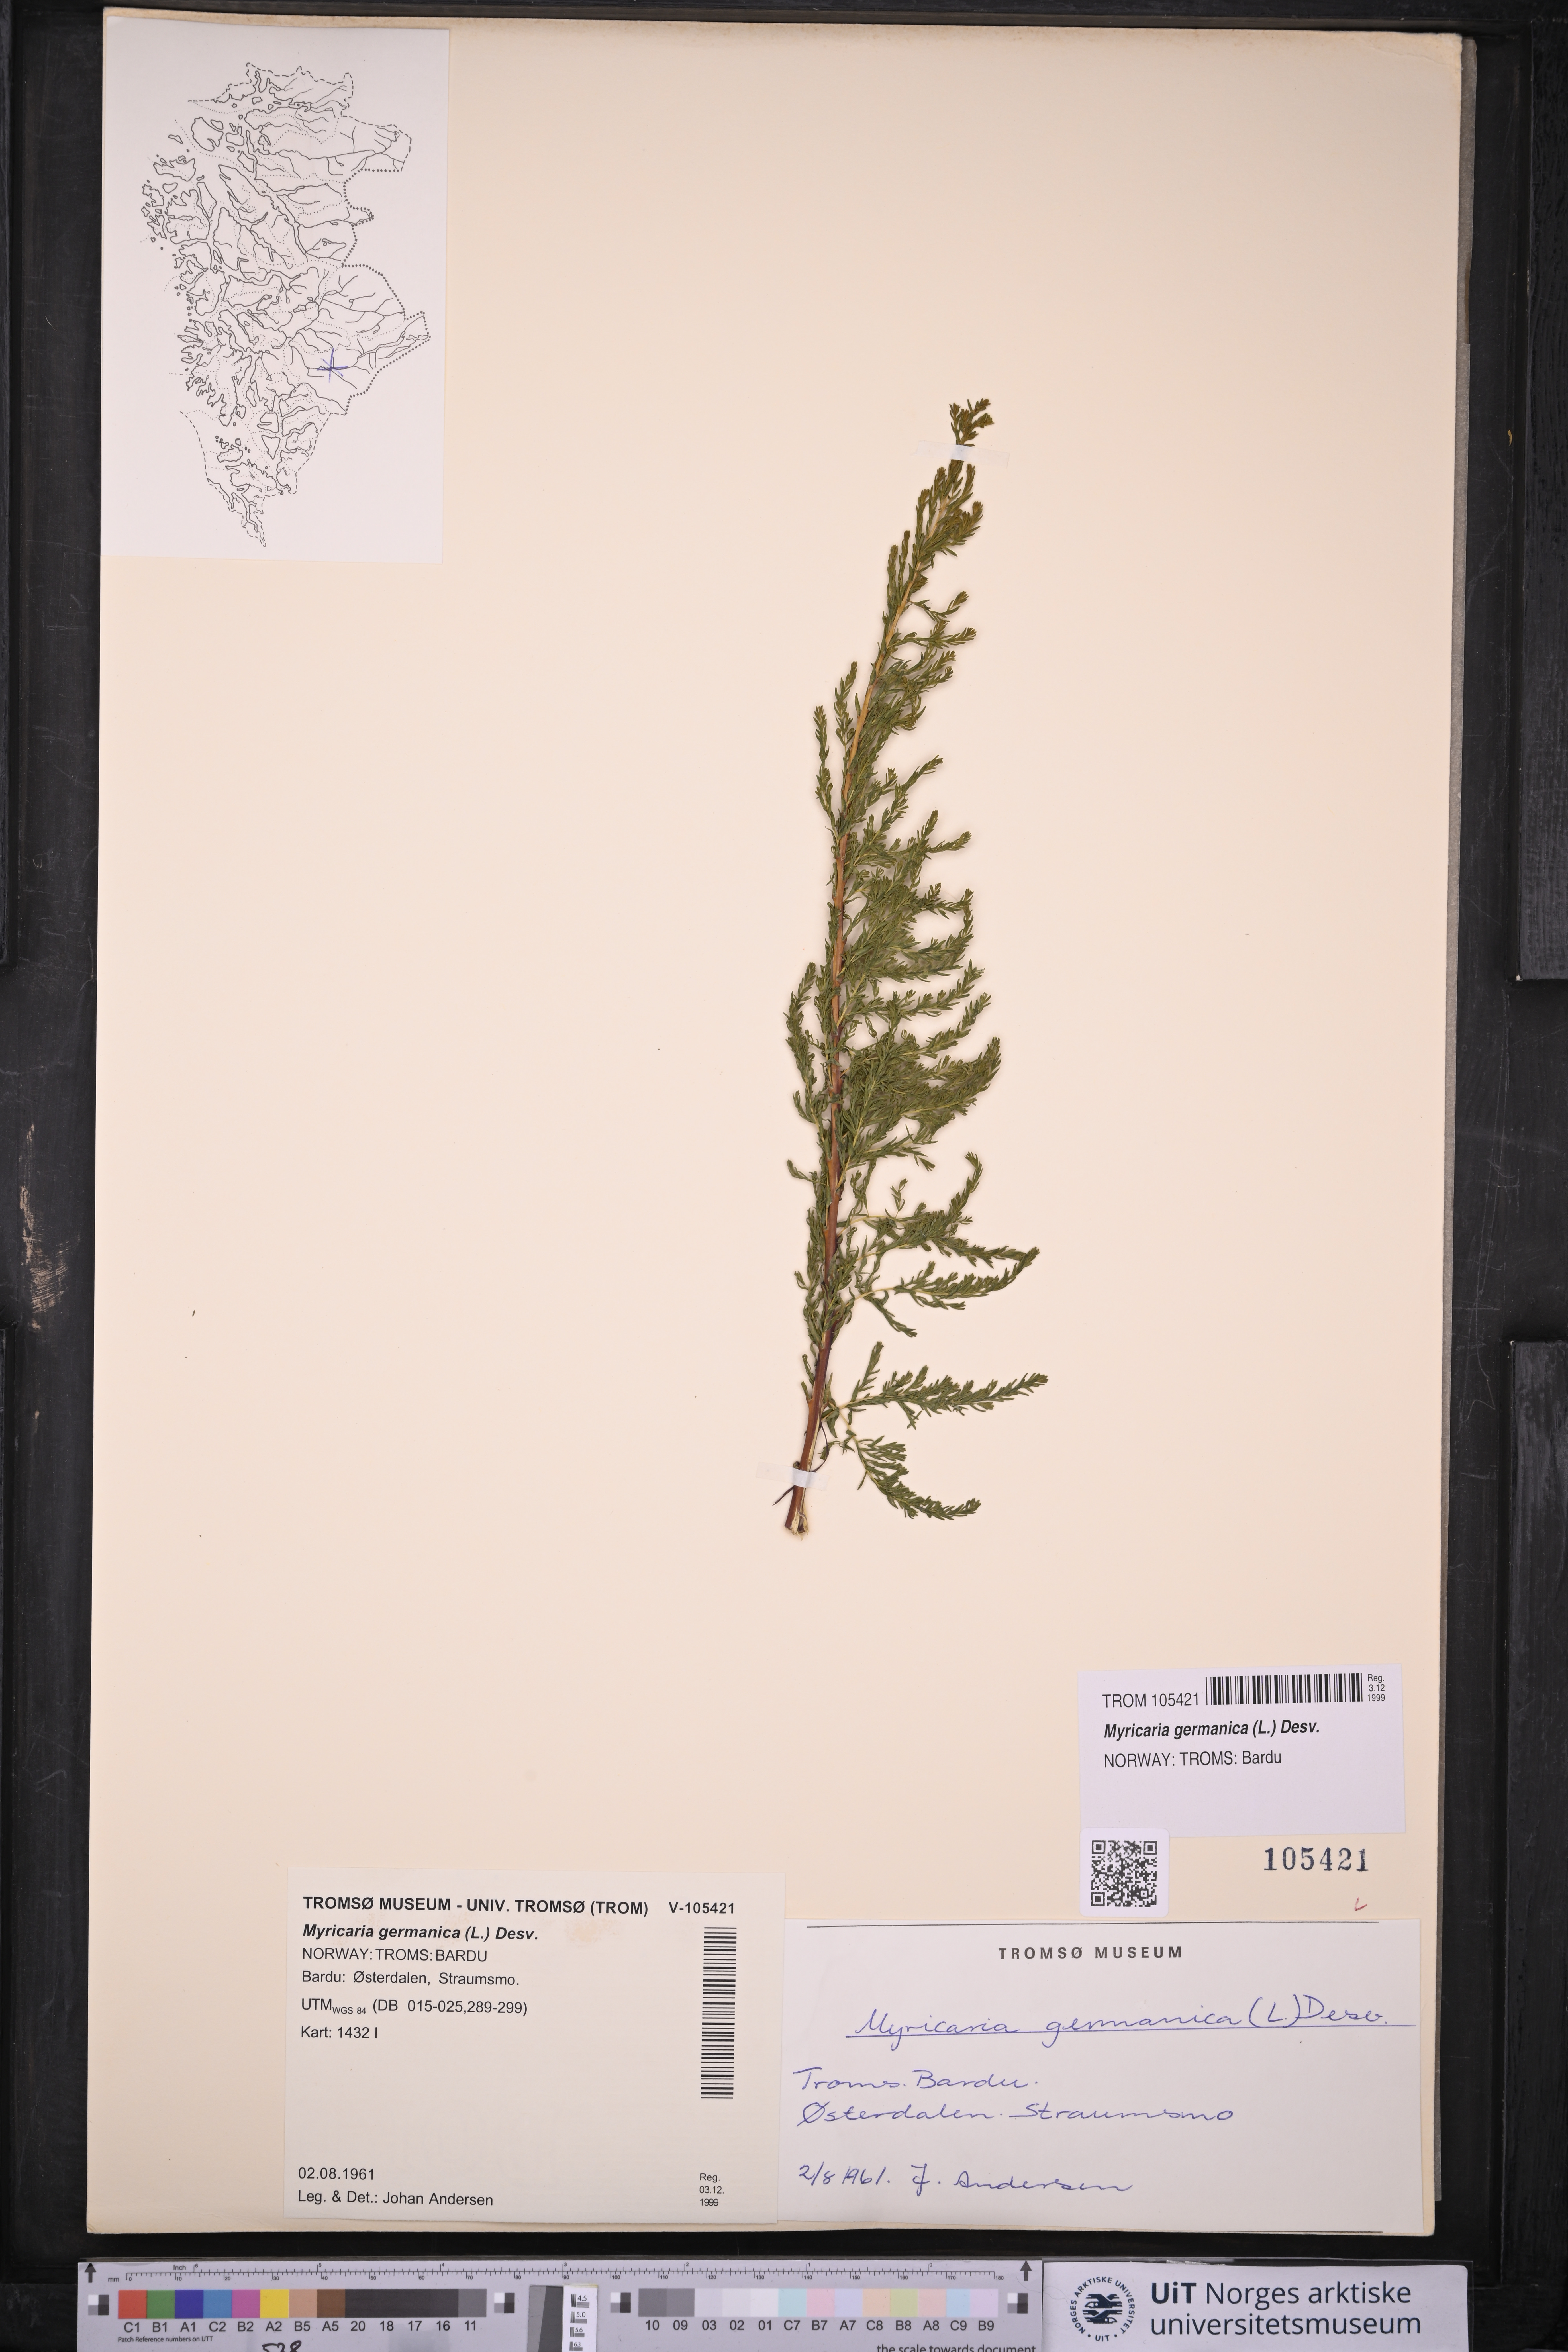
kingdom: Plantae
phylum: Tracheophyta
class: Magnoliopsida
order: Caryophyllales
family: Tamaricaceae
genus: Myricaria
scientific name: Myricaria germanica
